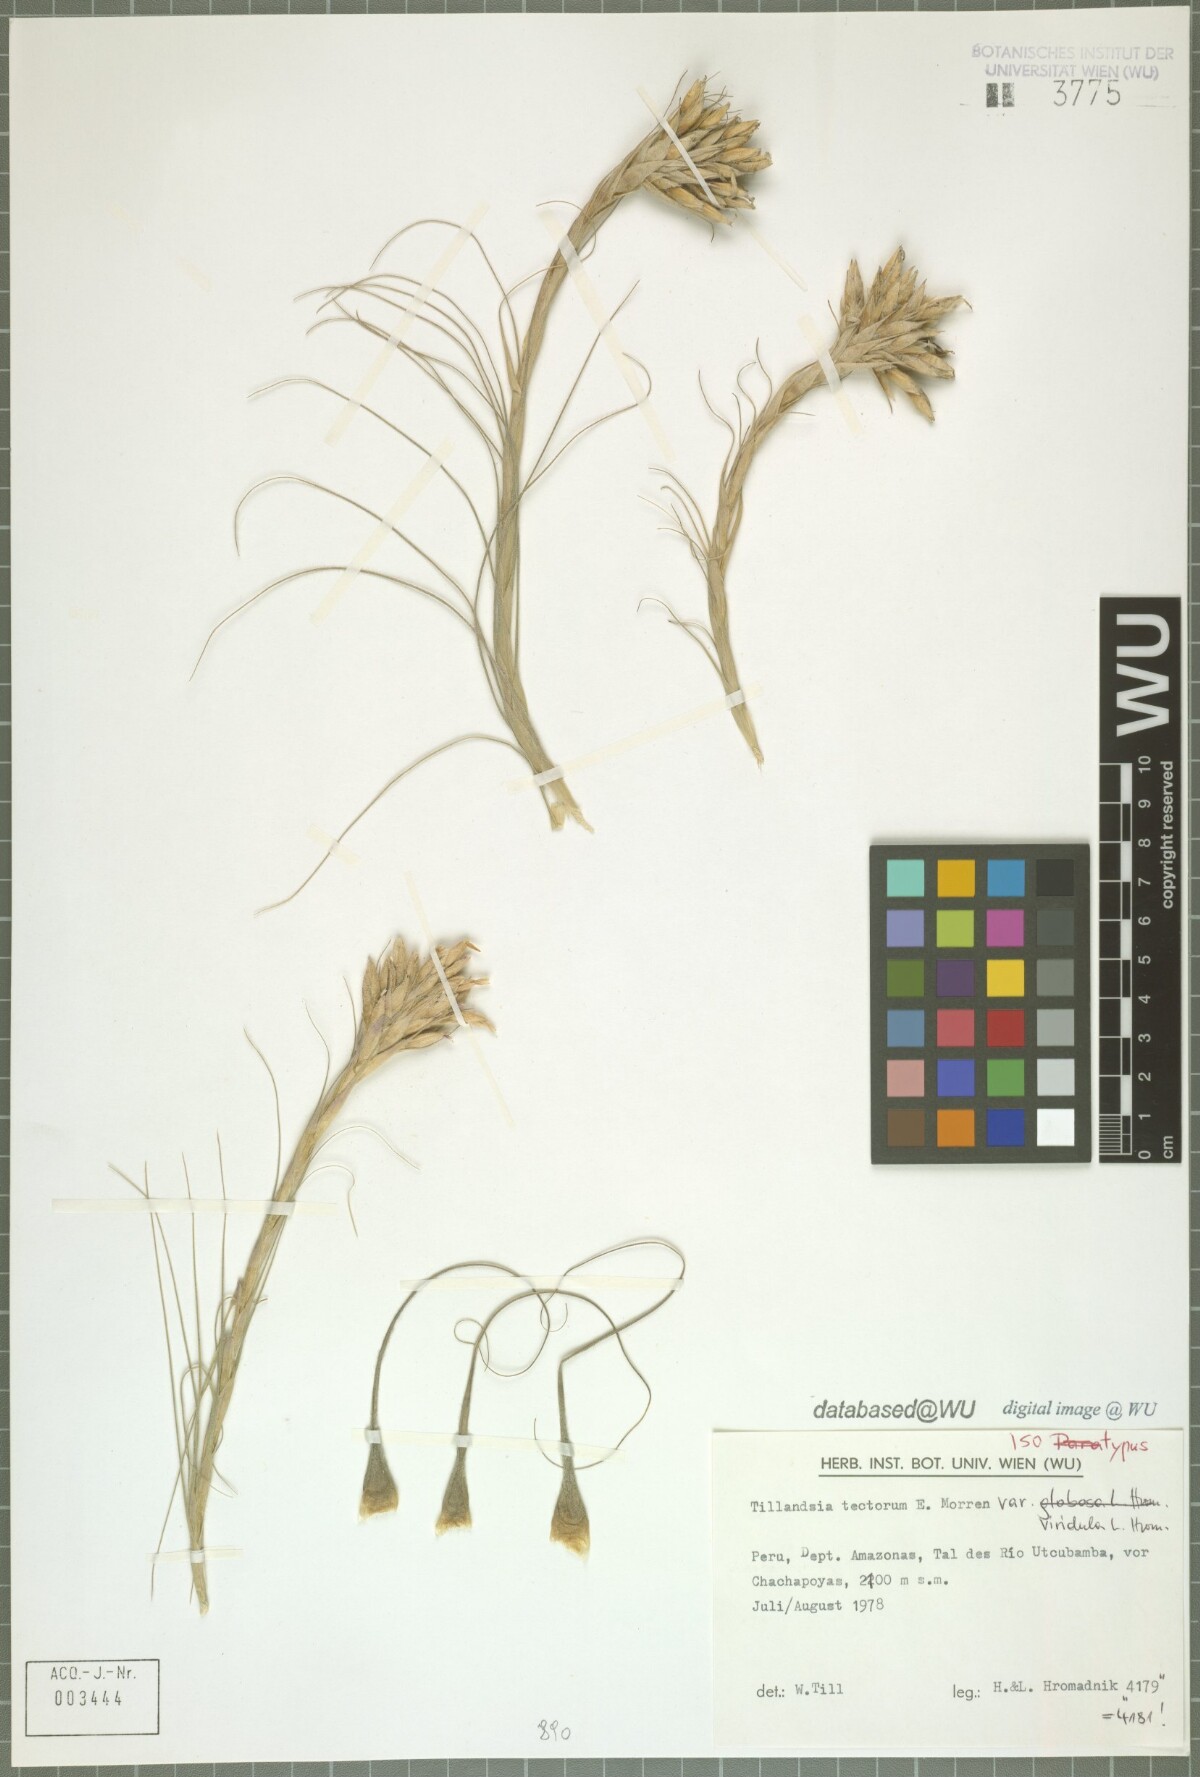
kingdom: Plantae
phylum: Tracheophyta
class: Liliopsida
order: Poales
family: Bromeliaceae
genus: Tillandsia
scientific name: Tillandsia tectorum
